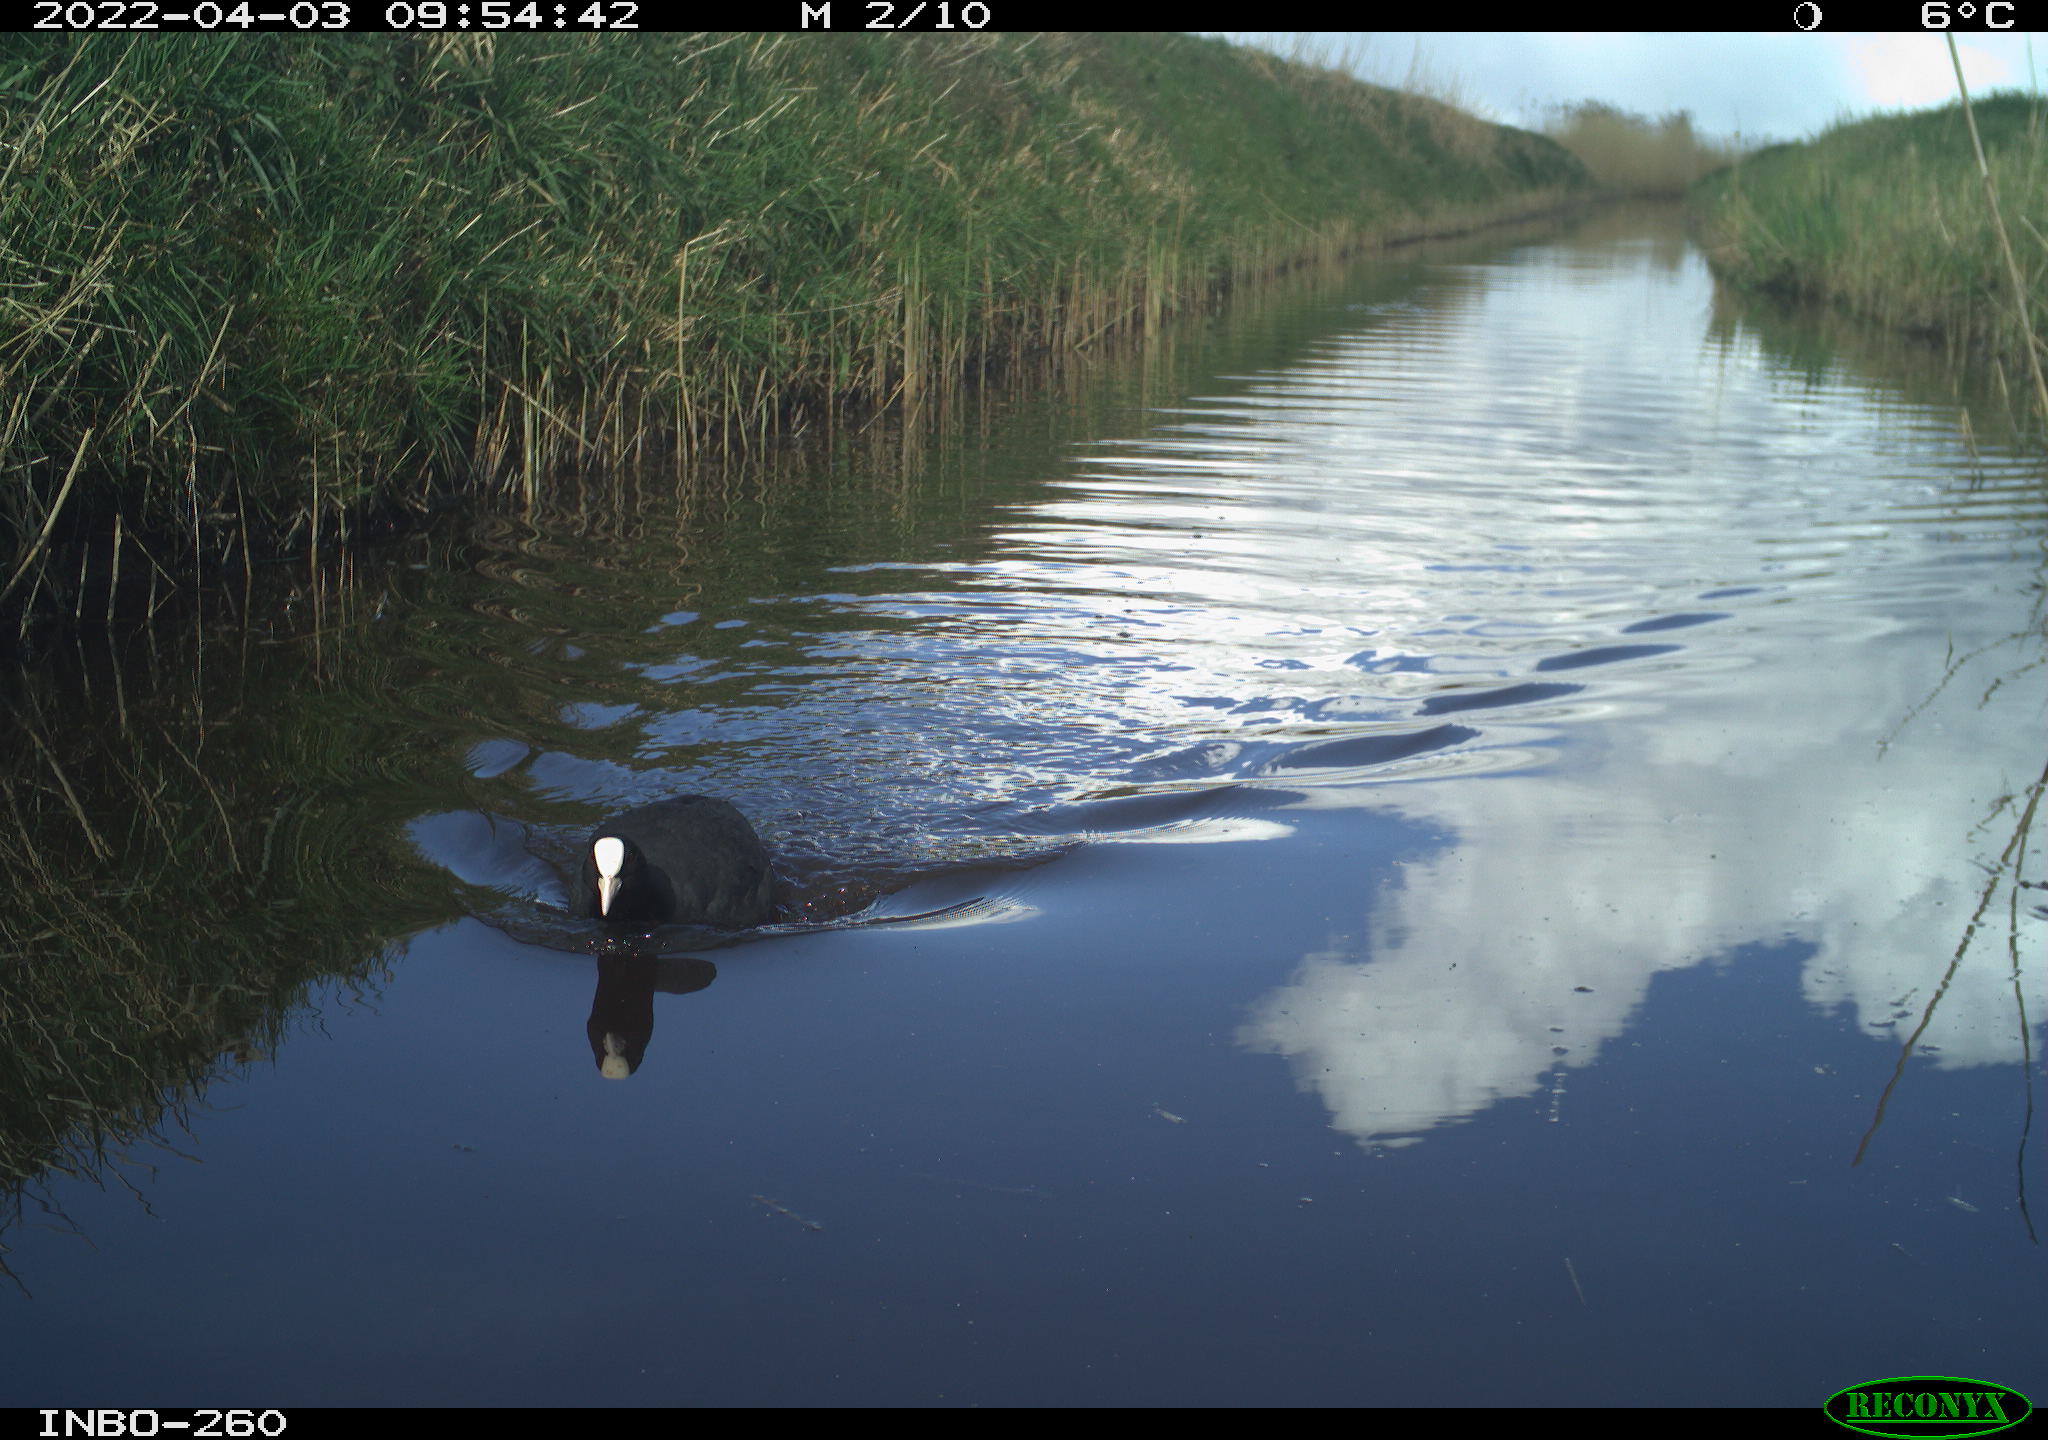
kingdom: Animalia
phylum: Chordata
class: Aves
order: Gruiformes
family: Rallidae
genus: Fulica
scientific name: Fulica atra
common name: Eurasian coot
